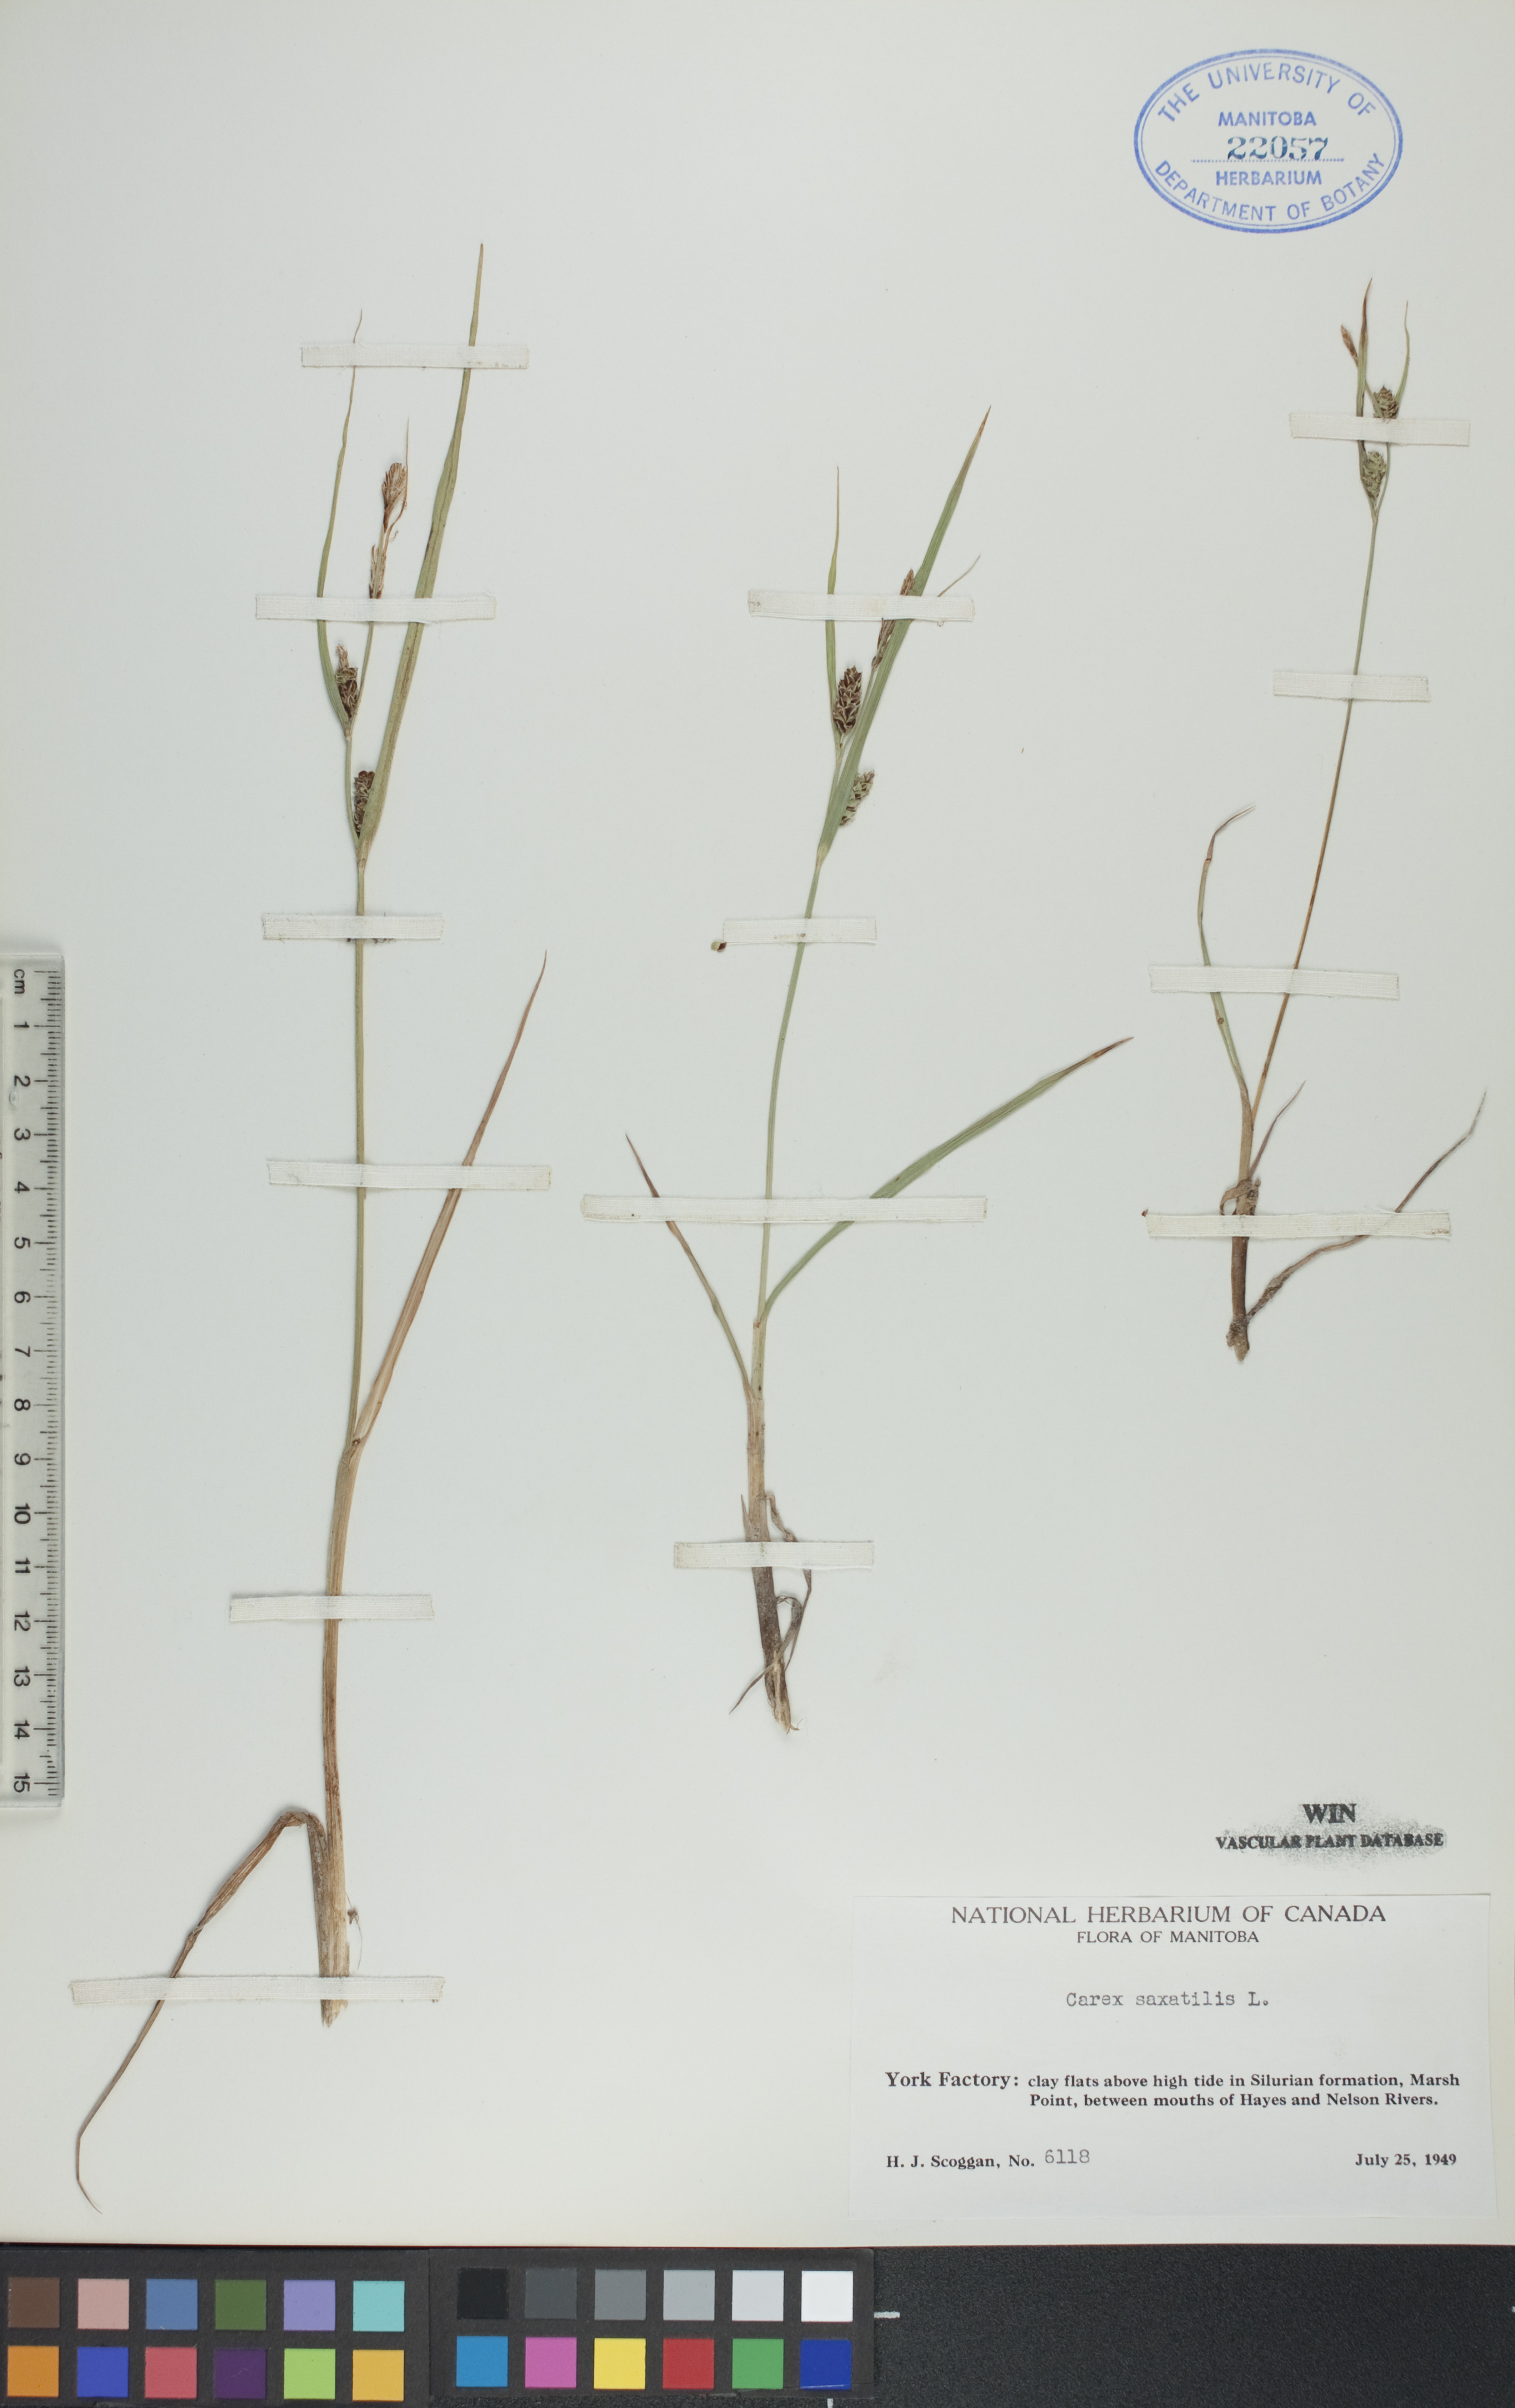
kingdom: Plantae
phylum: Tracheophyta
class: Liliopsida
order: Poales
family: Cyperaceae
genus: Carex
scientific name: Carex saxatilis
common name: Russet sedge
